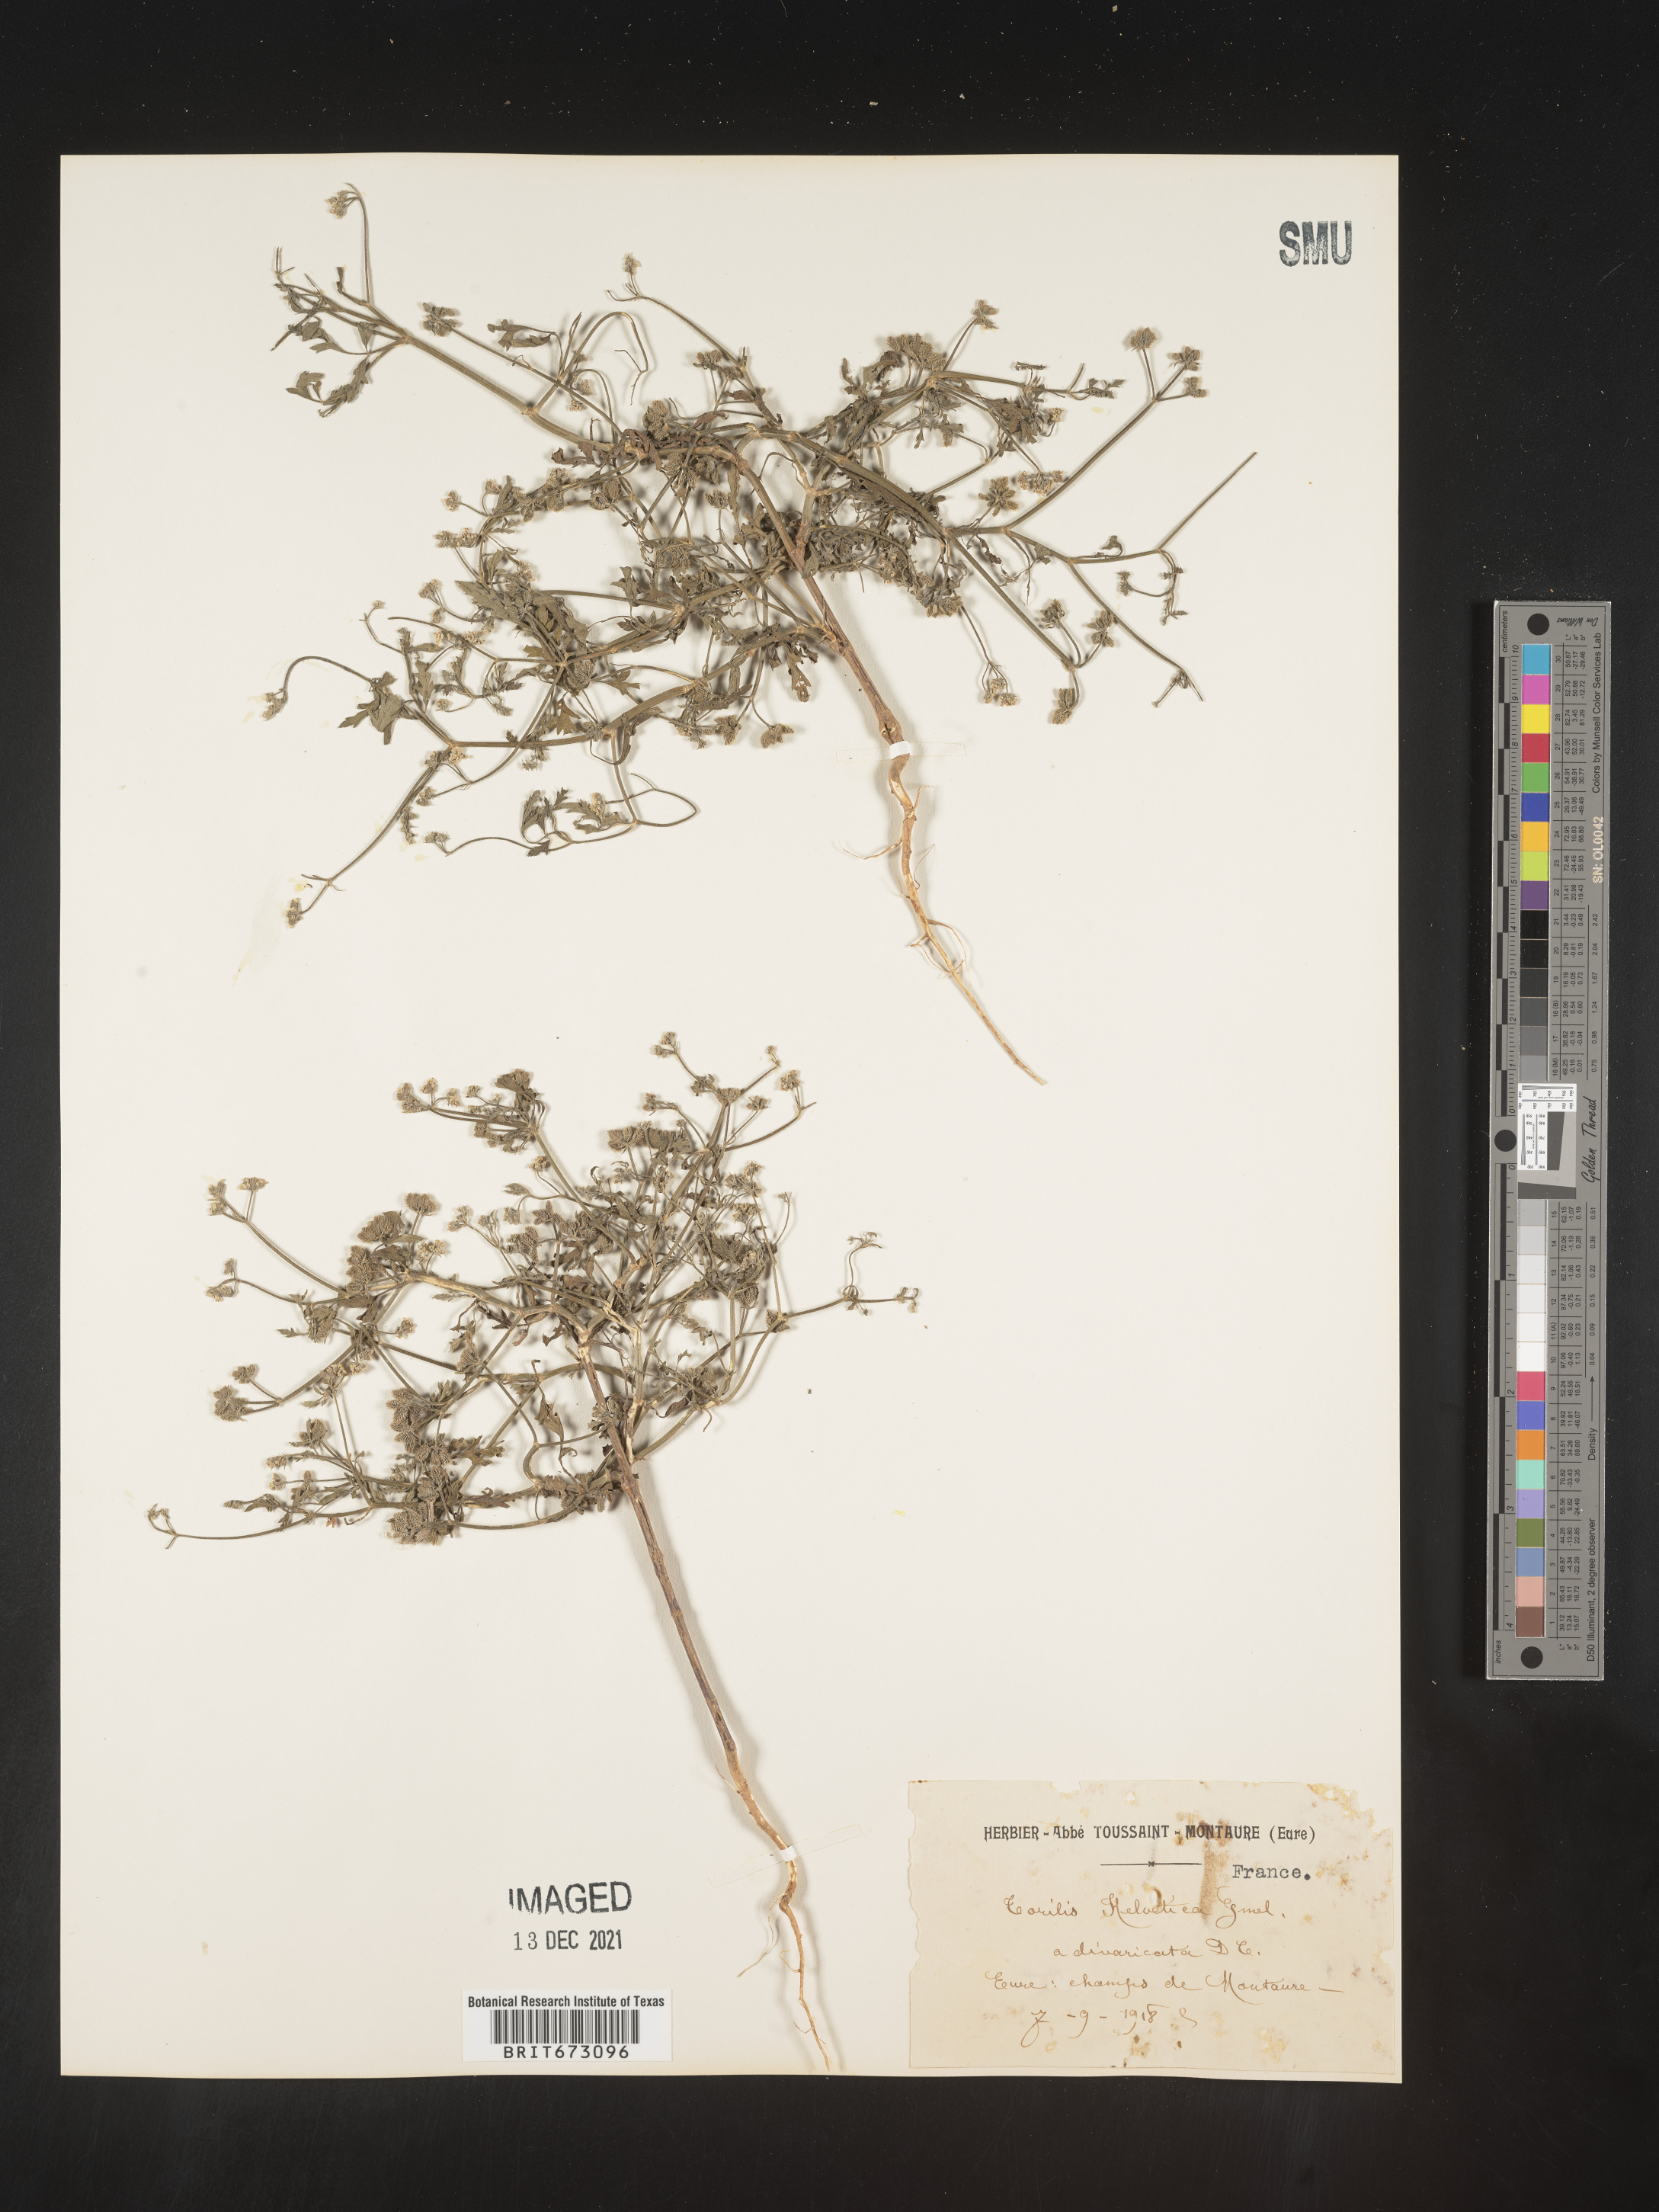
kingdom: Plantae
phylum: Tracheophyta
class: Magnoliopsida
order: Apiales
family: Apiaceae
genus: Torilis
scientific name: Torilis
